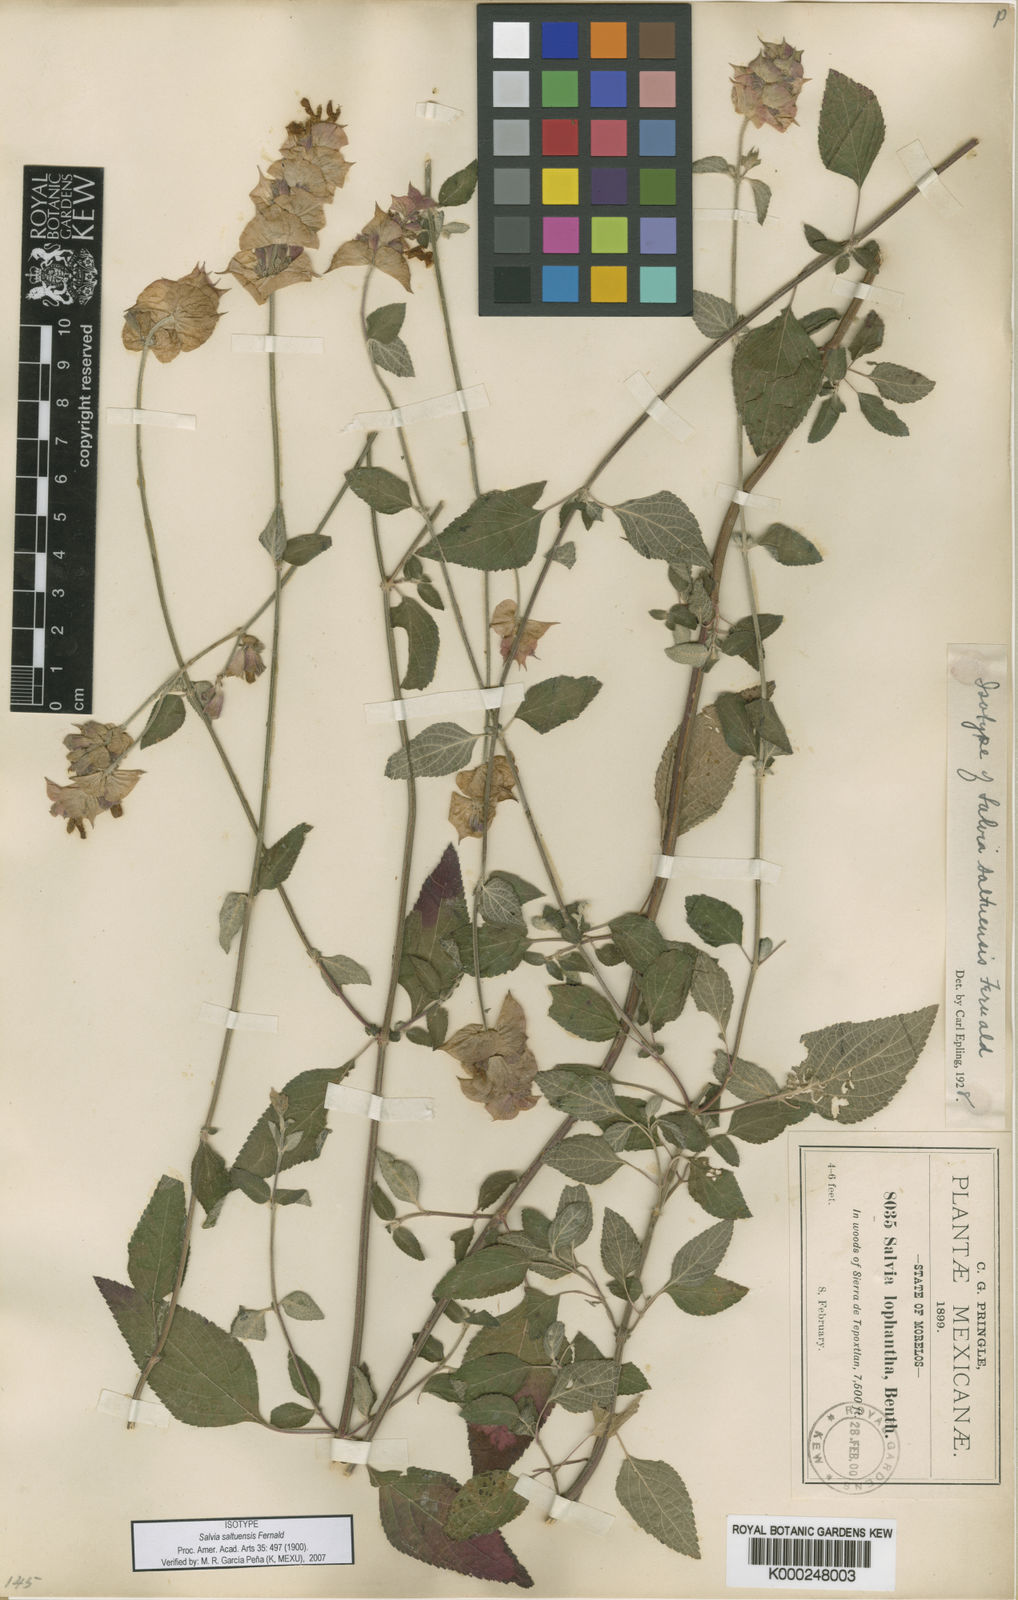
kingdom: Plantae
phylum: Tracheophyta
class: Magnoliopsida
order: Lamiales
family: Lamiaceae
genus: Salvia
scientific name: Salvia mocinoi
